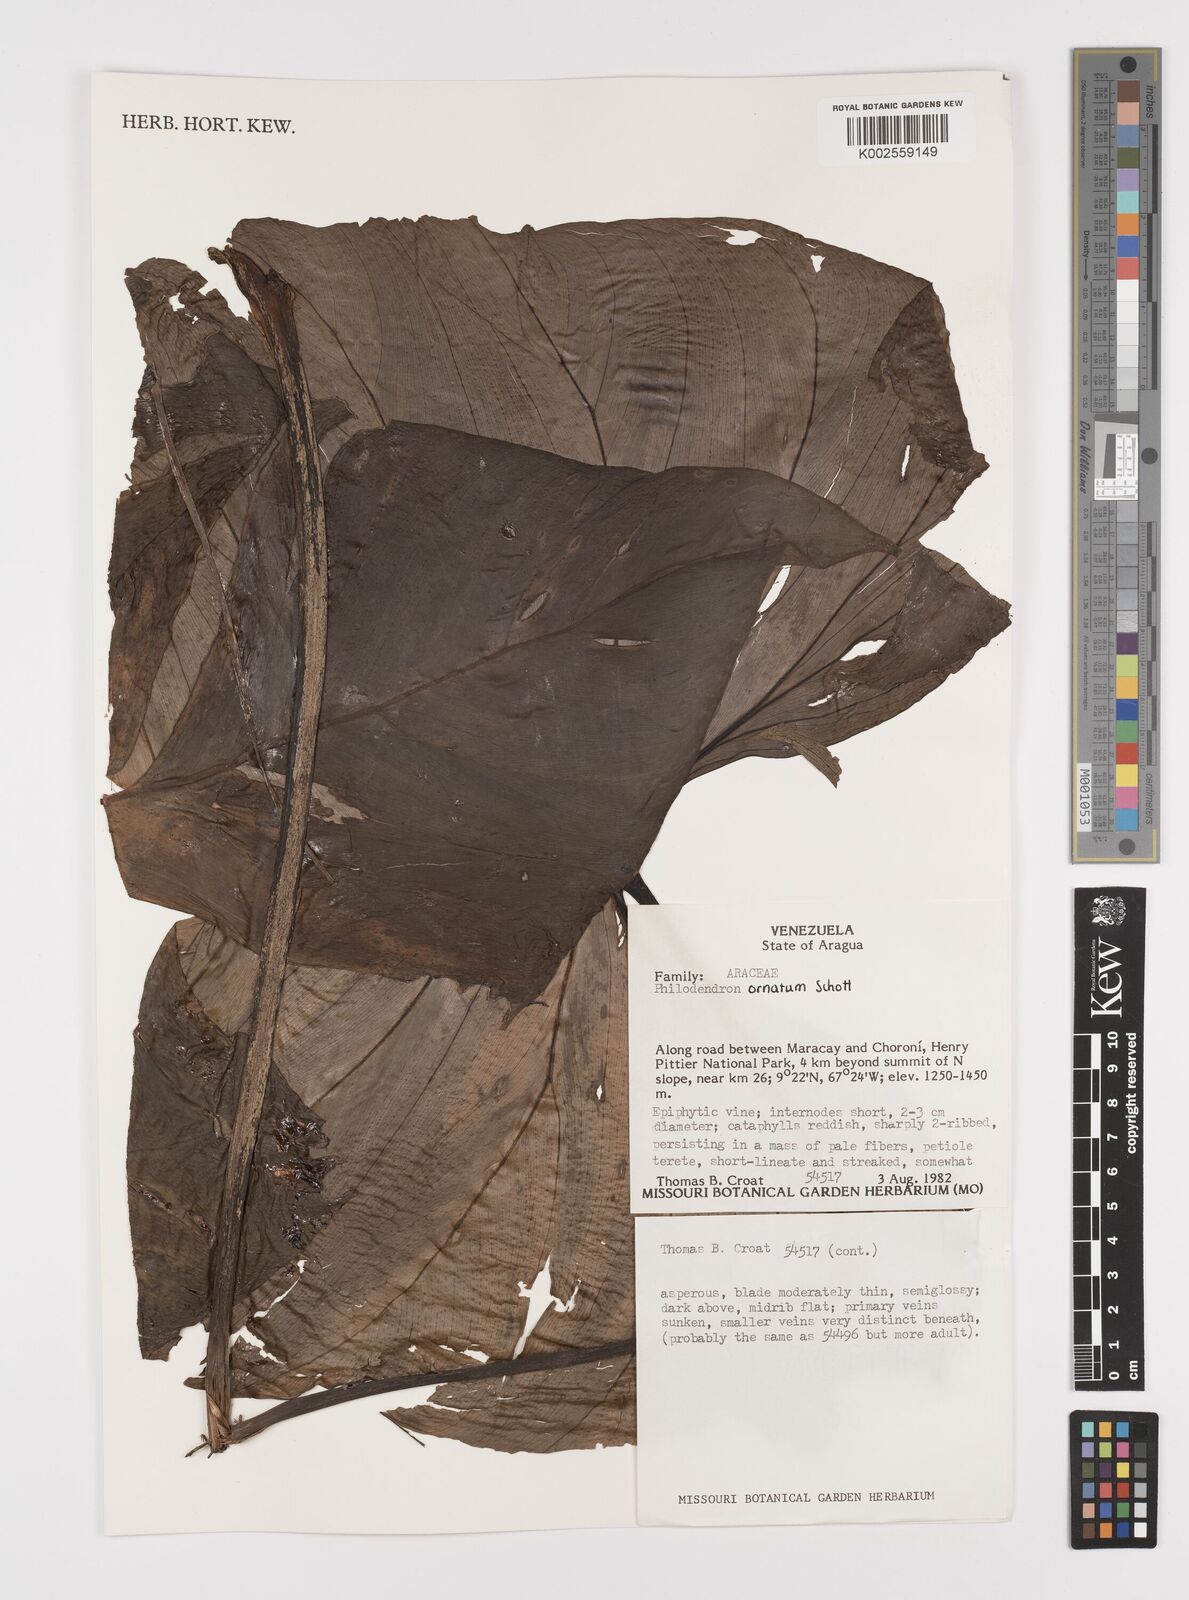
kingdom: Plantae
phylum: Tracheophyta
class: Liliopsida
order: Alismatales
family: Araceae
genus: Philodendron
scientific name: Philodendron ornatum
